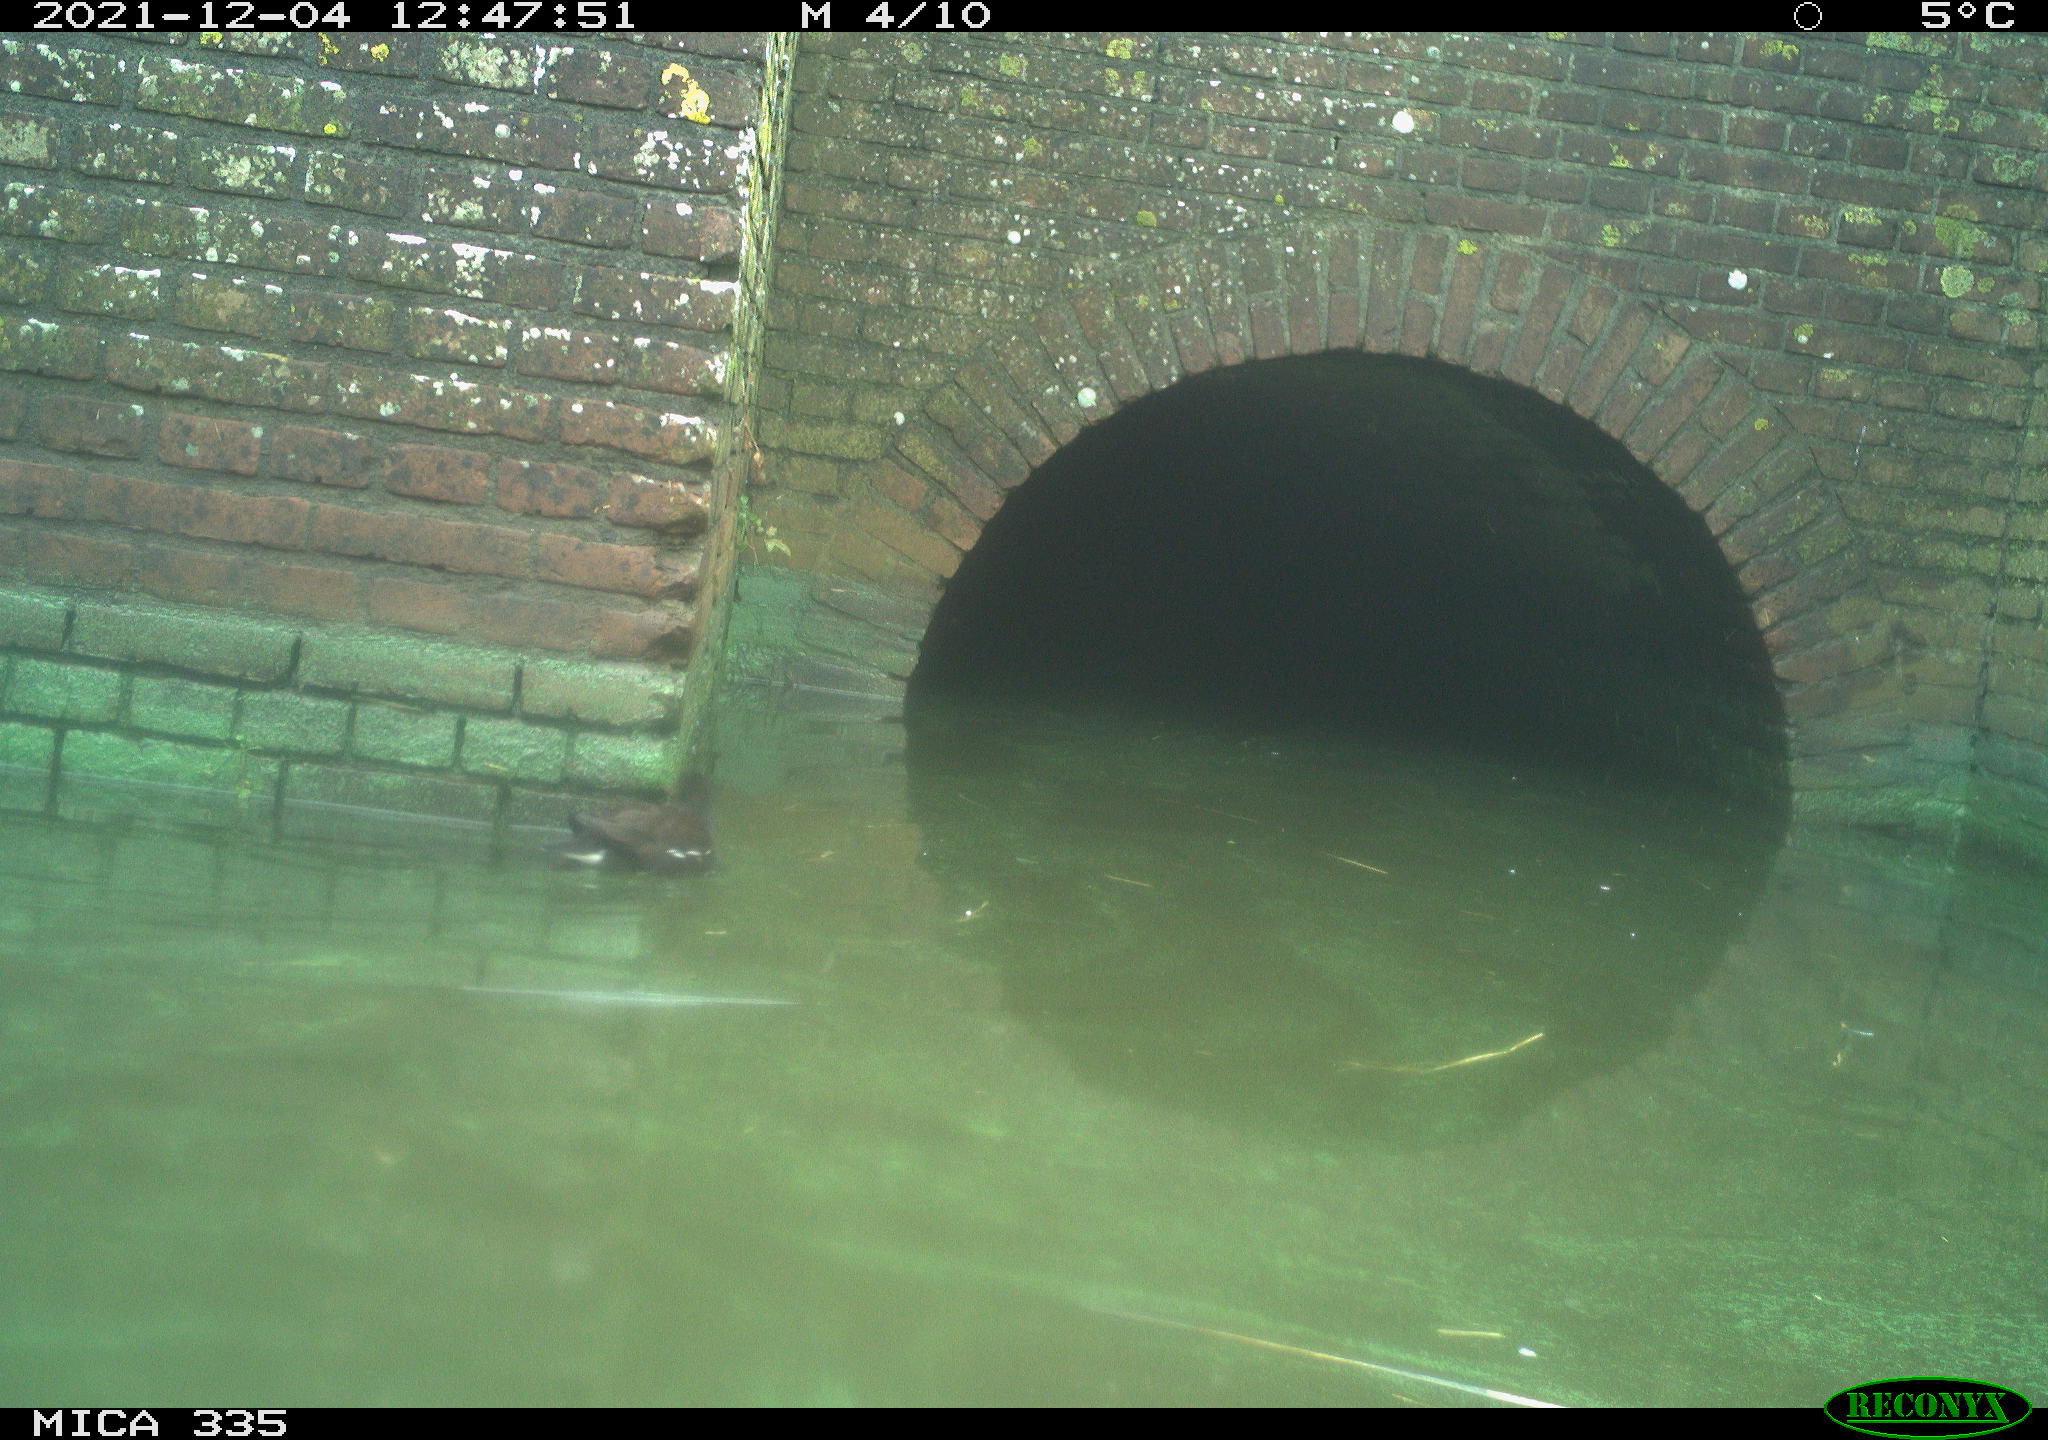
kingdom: Animalia
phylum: Chordata
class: Aves
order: Gruiformes
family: Rallidae
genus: Gallinula
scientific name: Gallinula chloropus
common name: Common moorhen
